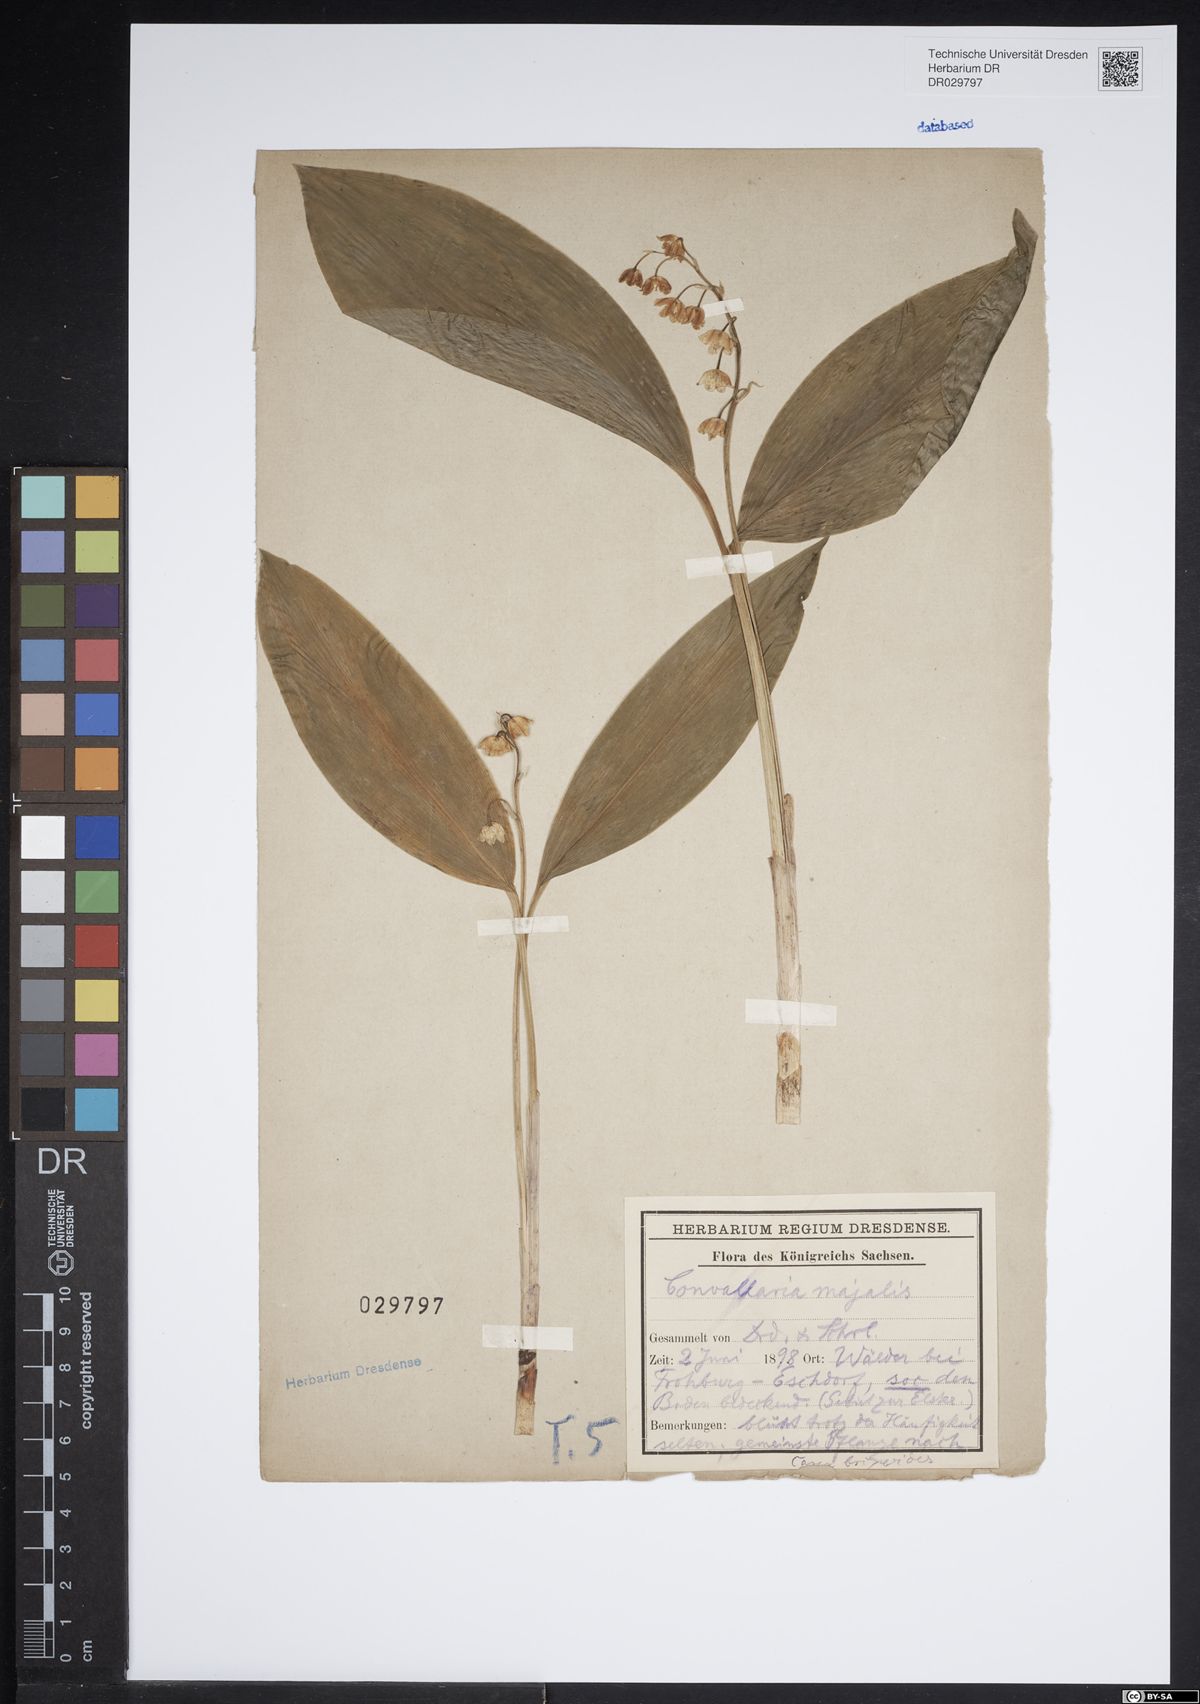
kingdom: Plantae
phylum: Tracheophyta
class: Liliopsida
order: Asparagales
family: Asparagaceae
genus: Convallaria
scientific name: Convallaria majalis
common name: Lily-of-the-valley
